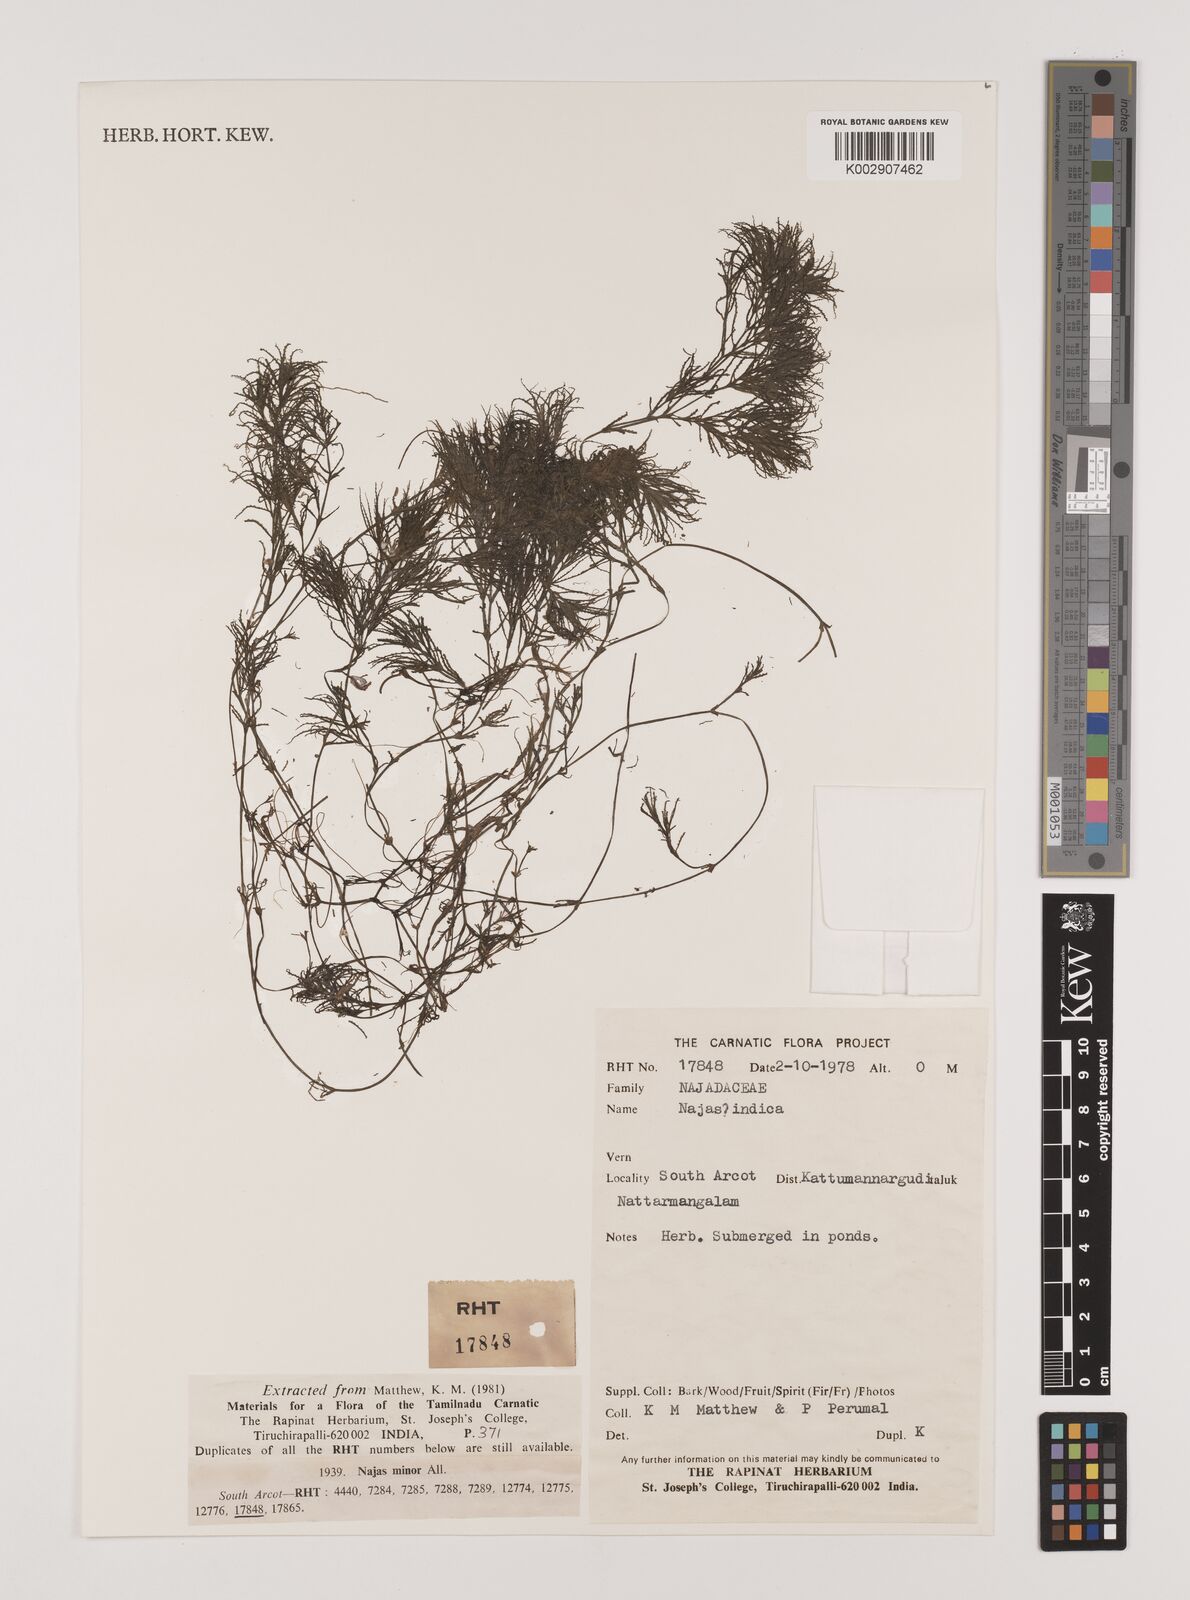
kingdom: Plantae
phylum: Tracheophyta
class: Liliopsida
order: Alismatales
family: Hydrocharitaceae
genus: Najas
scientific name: Najas indica
